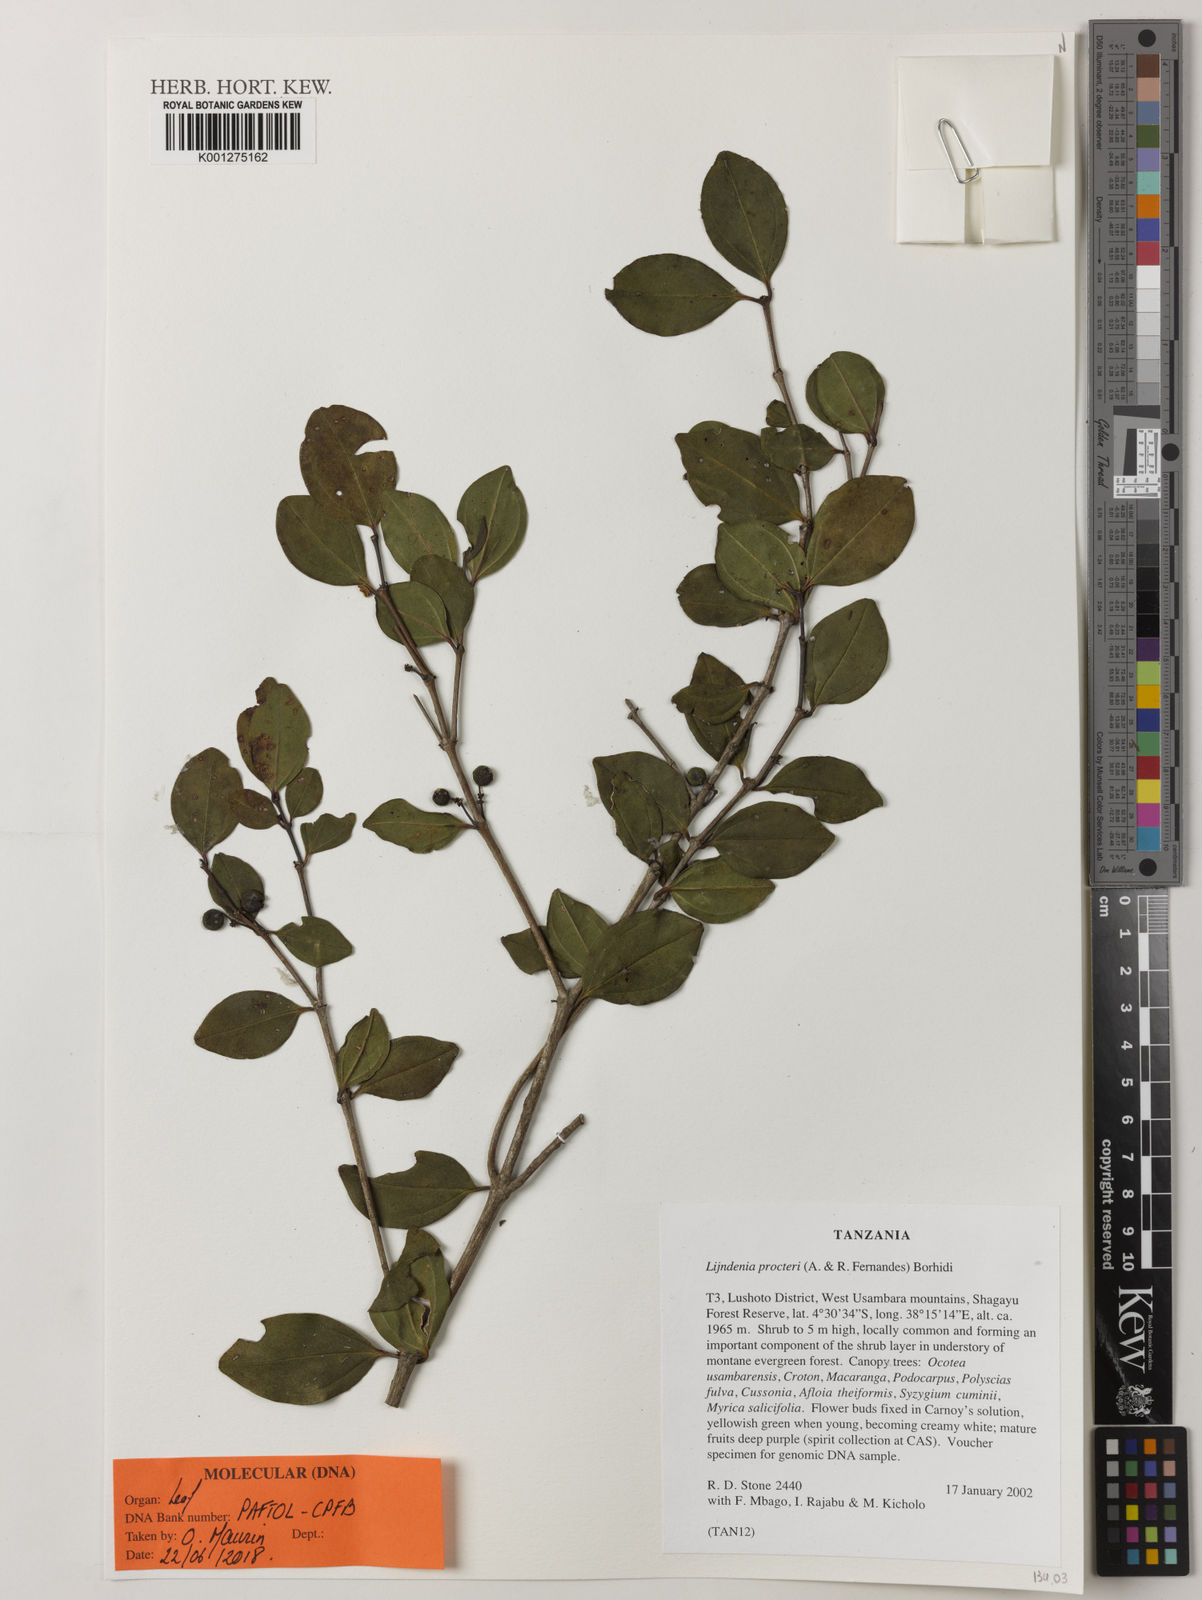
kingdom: Plantae
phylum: Tracheophyta
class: Magnoliopsida
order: Myrtales
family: Melastomataceae
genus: Lijndenia
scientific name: Lijndenia procteri
